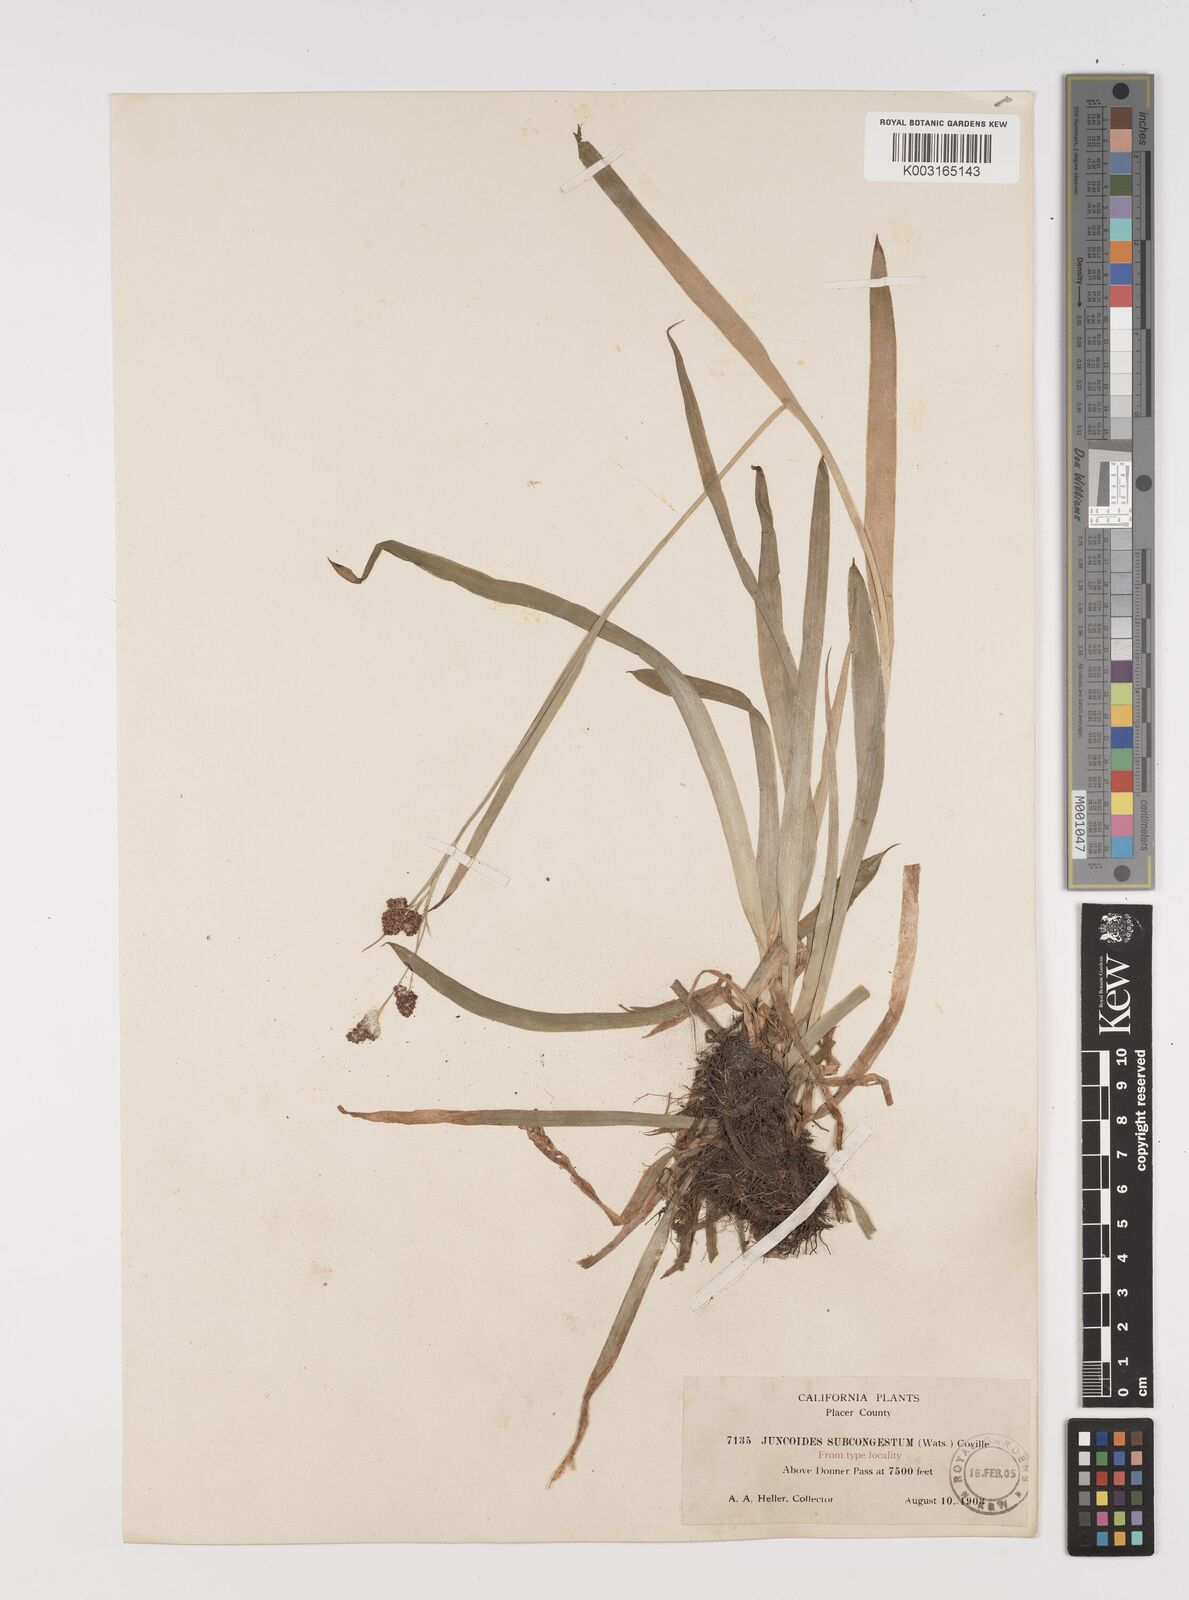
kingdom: Plantae
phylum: Tracheophyta
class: Liliopsida
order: Poales
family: Juncaceae
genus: Luzula
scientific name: Luzula subcongesta
